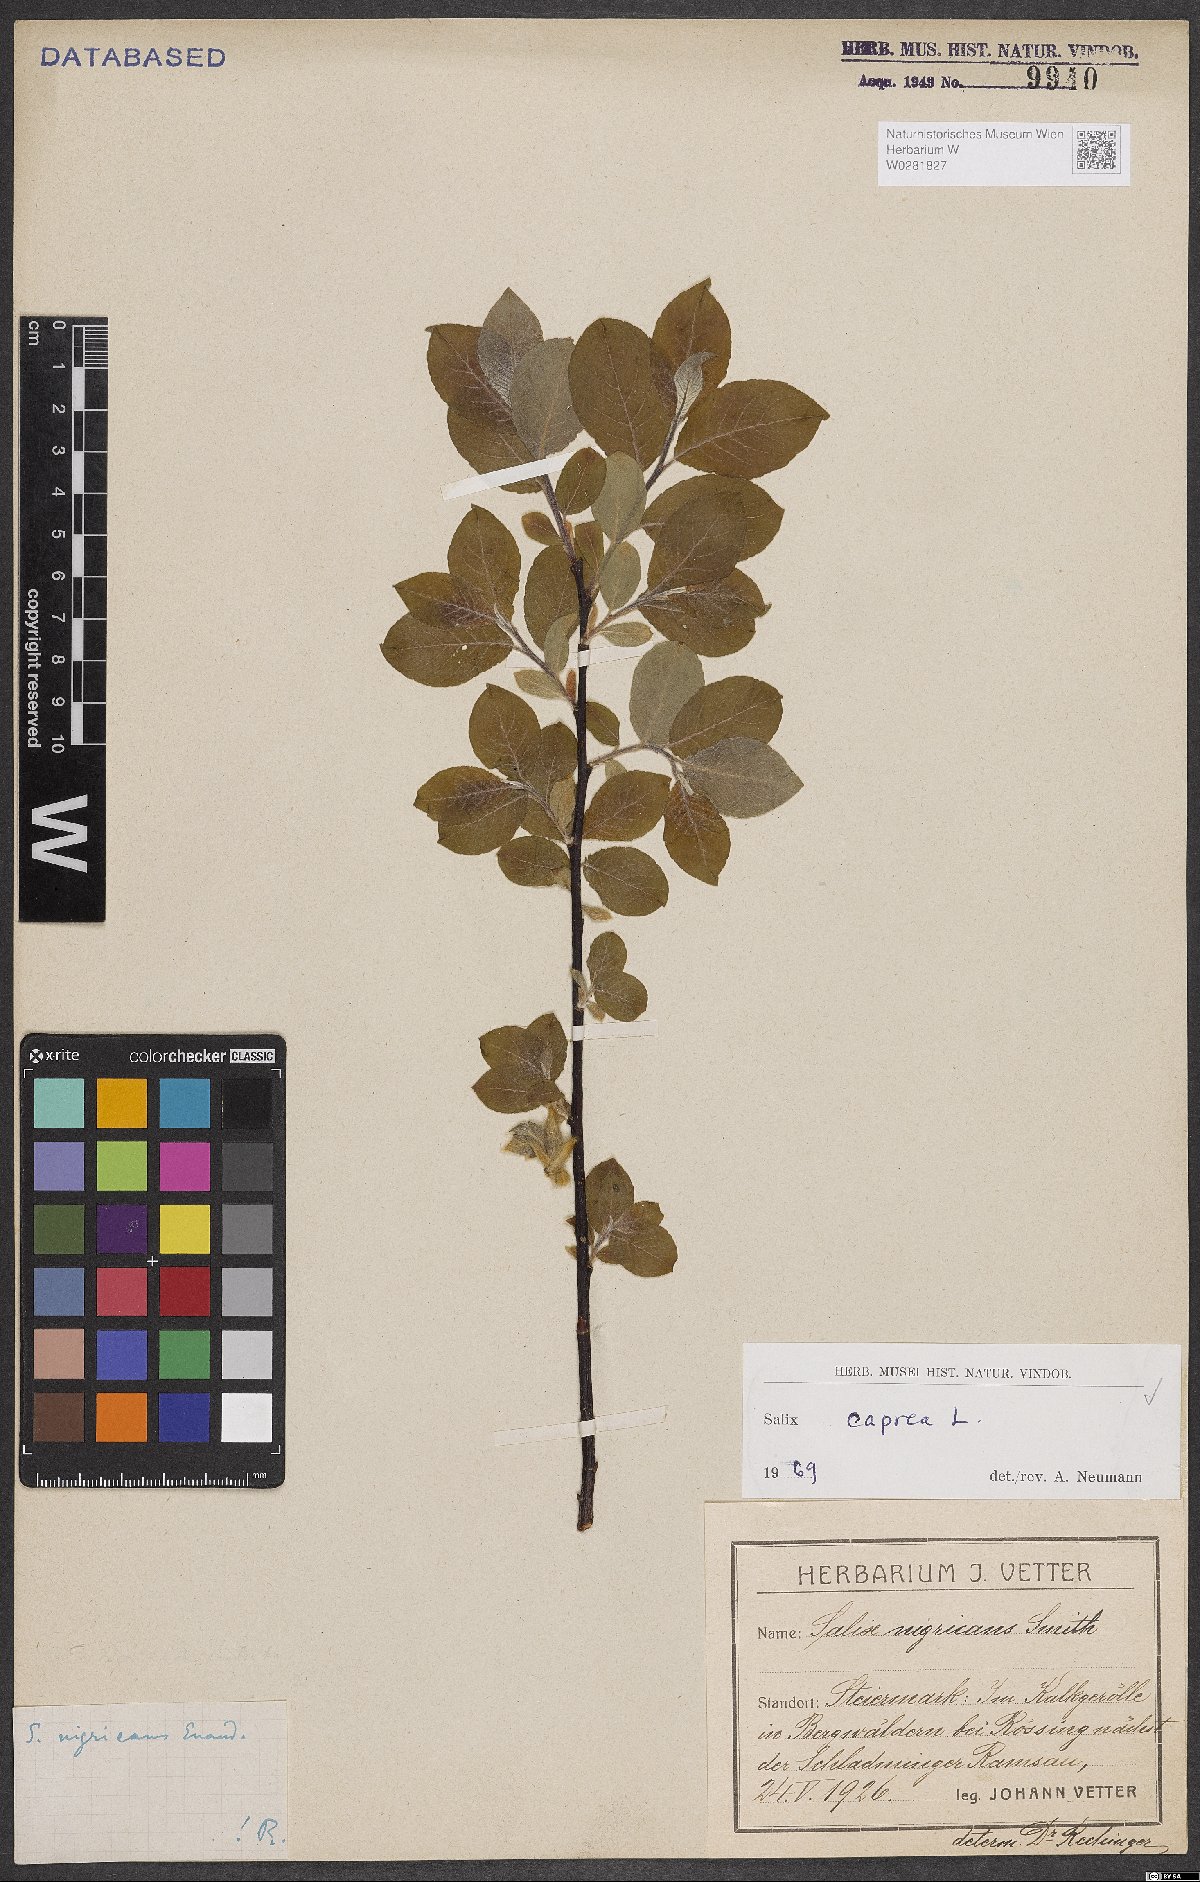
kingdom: Plantae
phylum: Tracheophyta
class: Magnoliopsida
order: Malpighiales
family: Salicaceae
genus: Salix
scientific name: Salix caprea
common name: Goat willow
